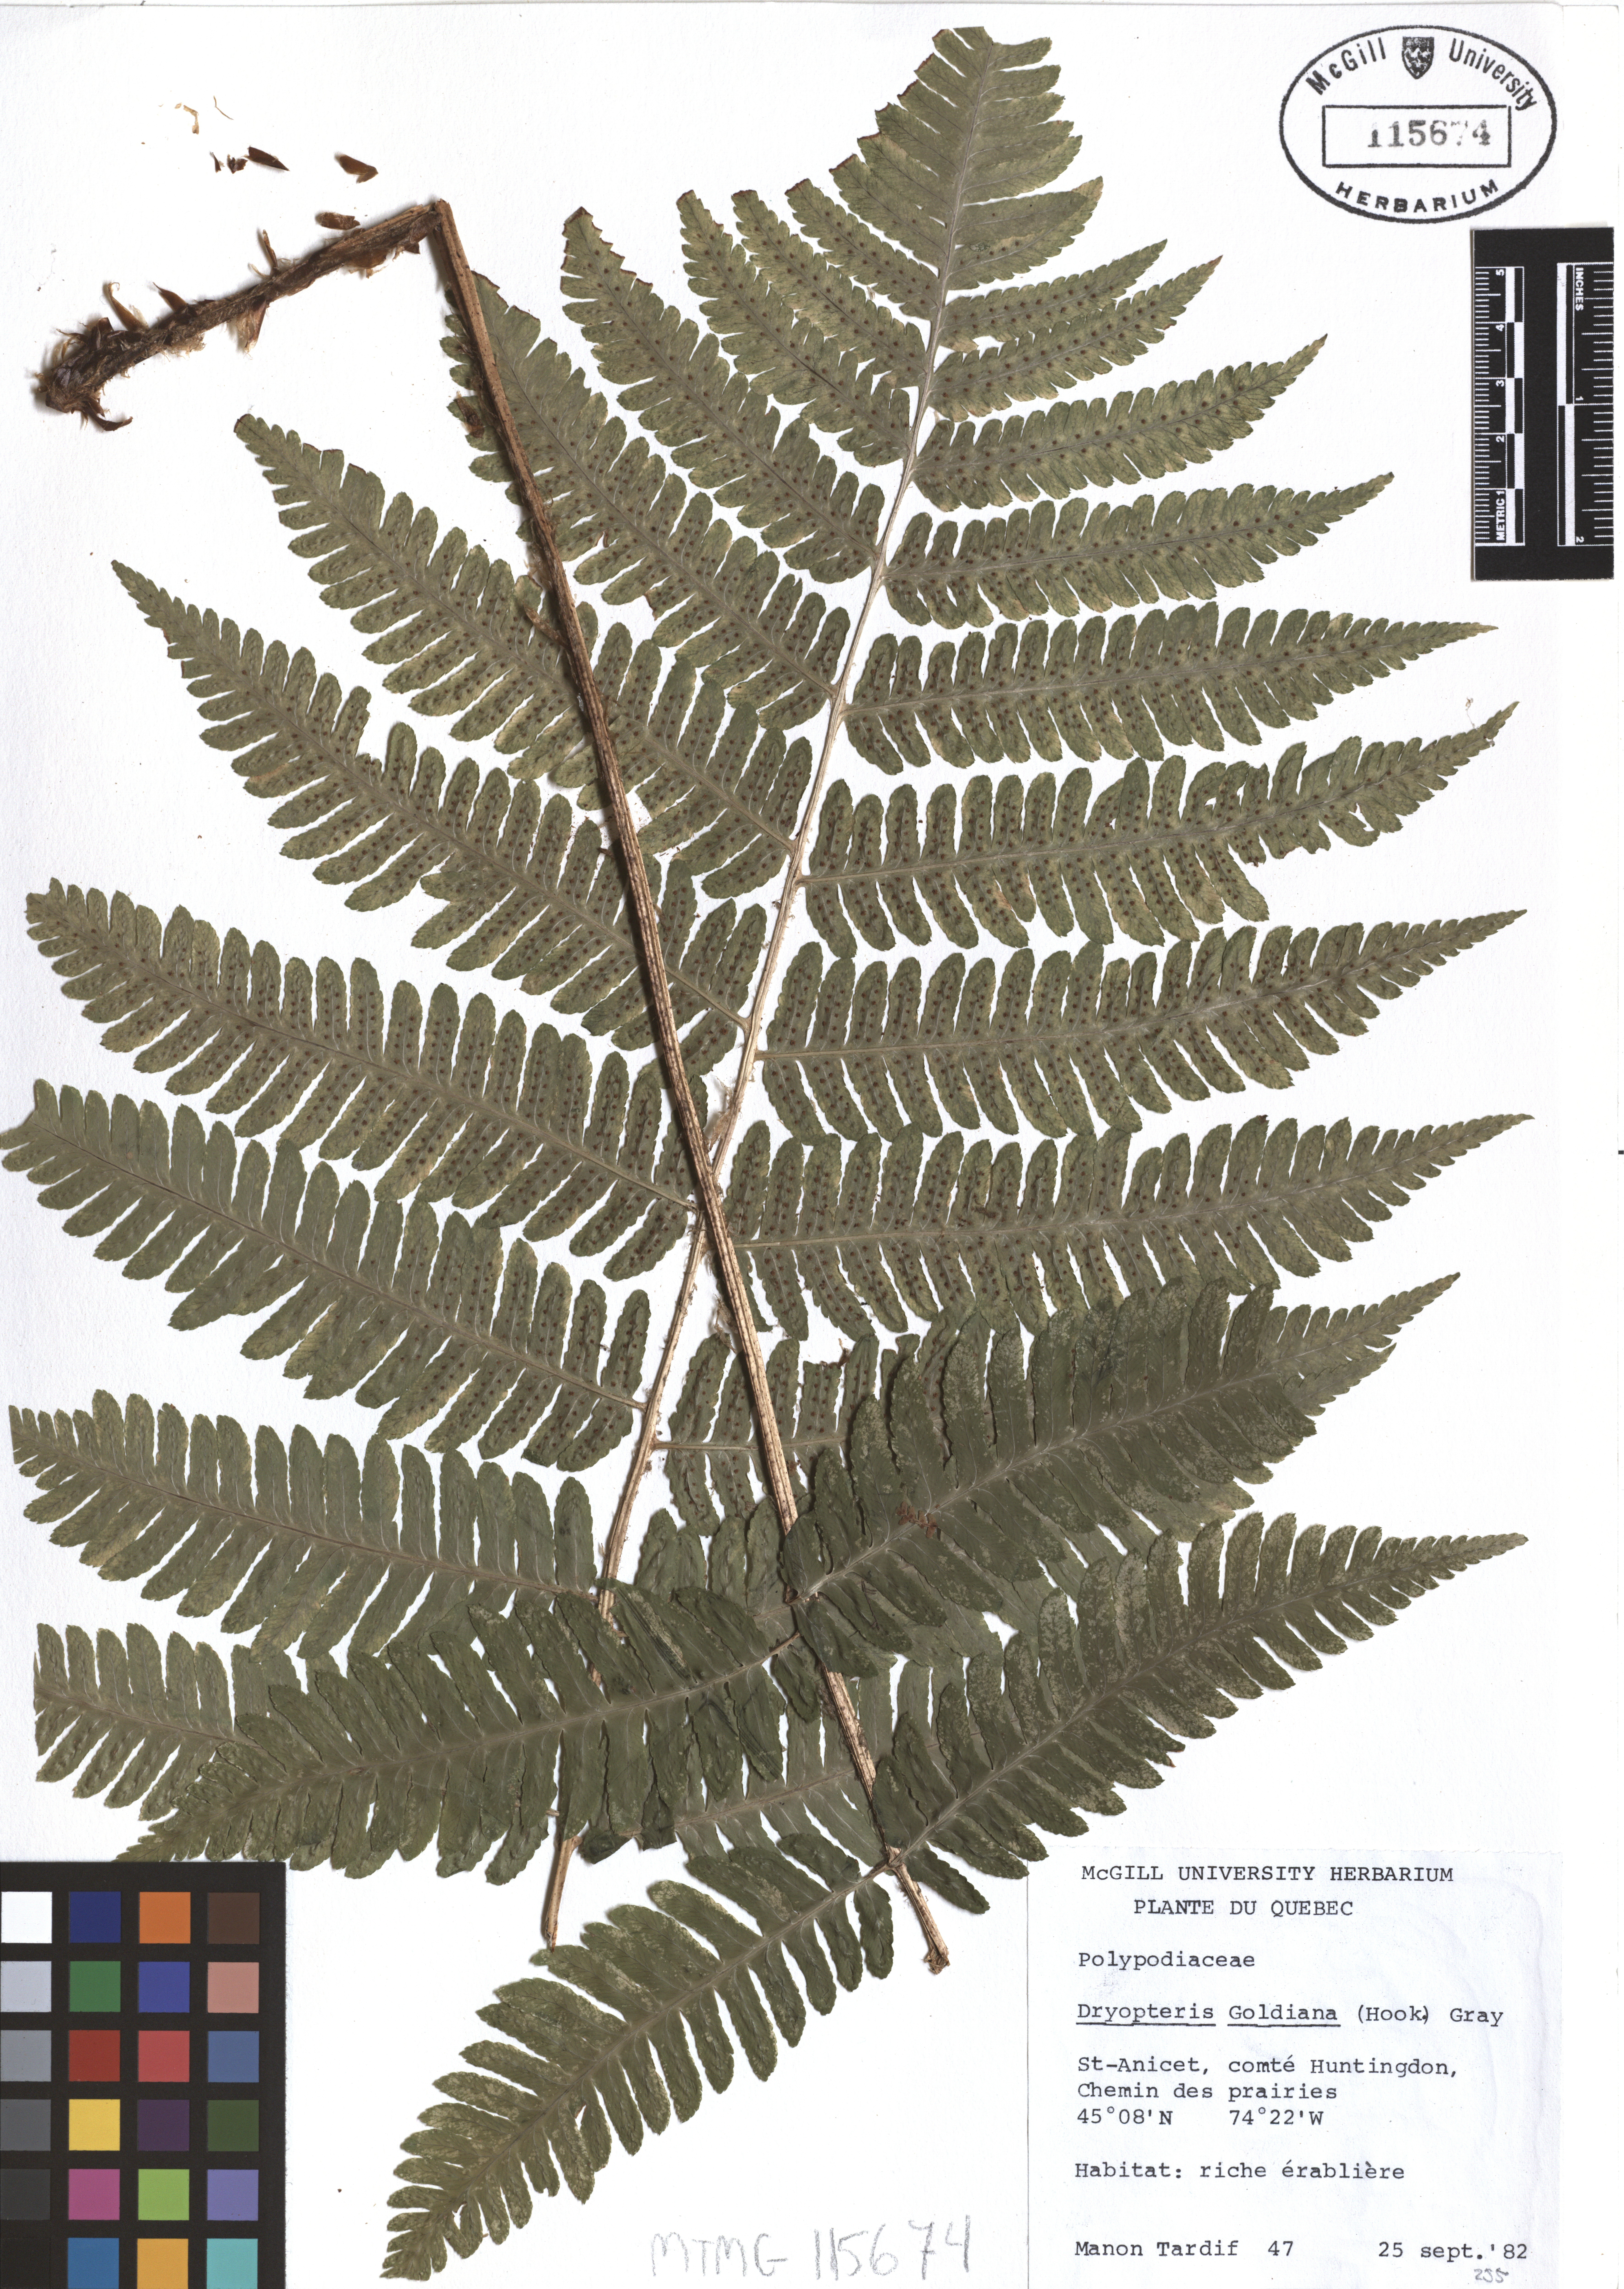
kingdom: Plantae
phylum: Tracheophyta
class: Polypodiopsida
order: Polypodiales
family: Dryopteridaceae
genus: Dryopteris
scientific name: Dryopteris goeldiana
